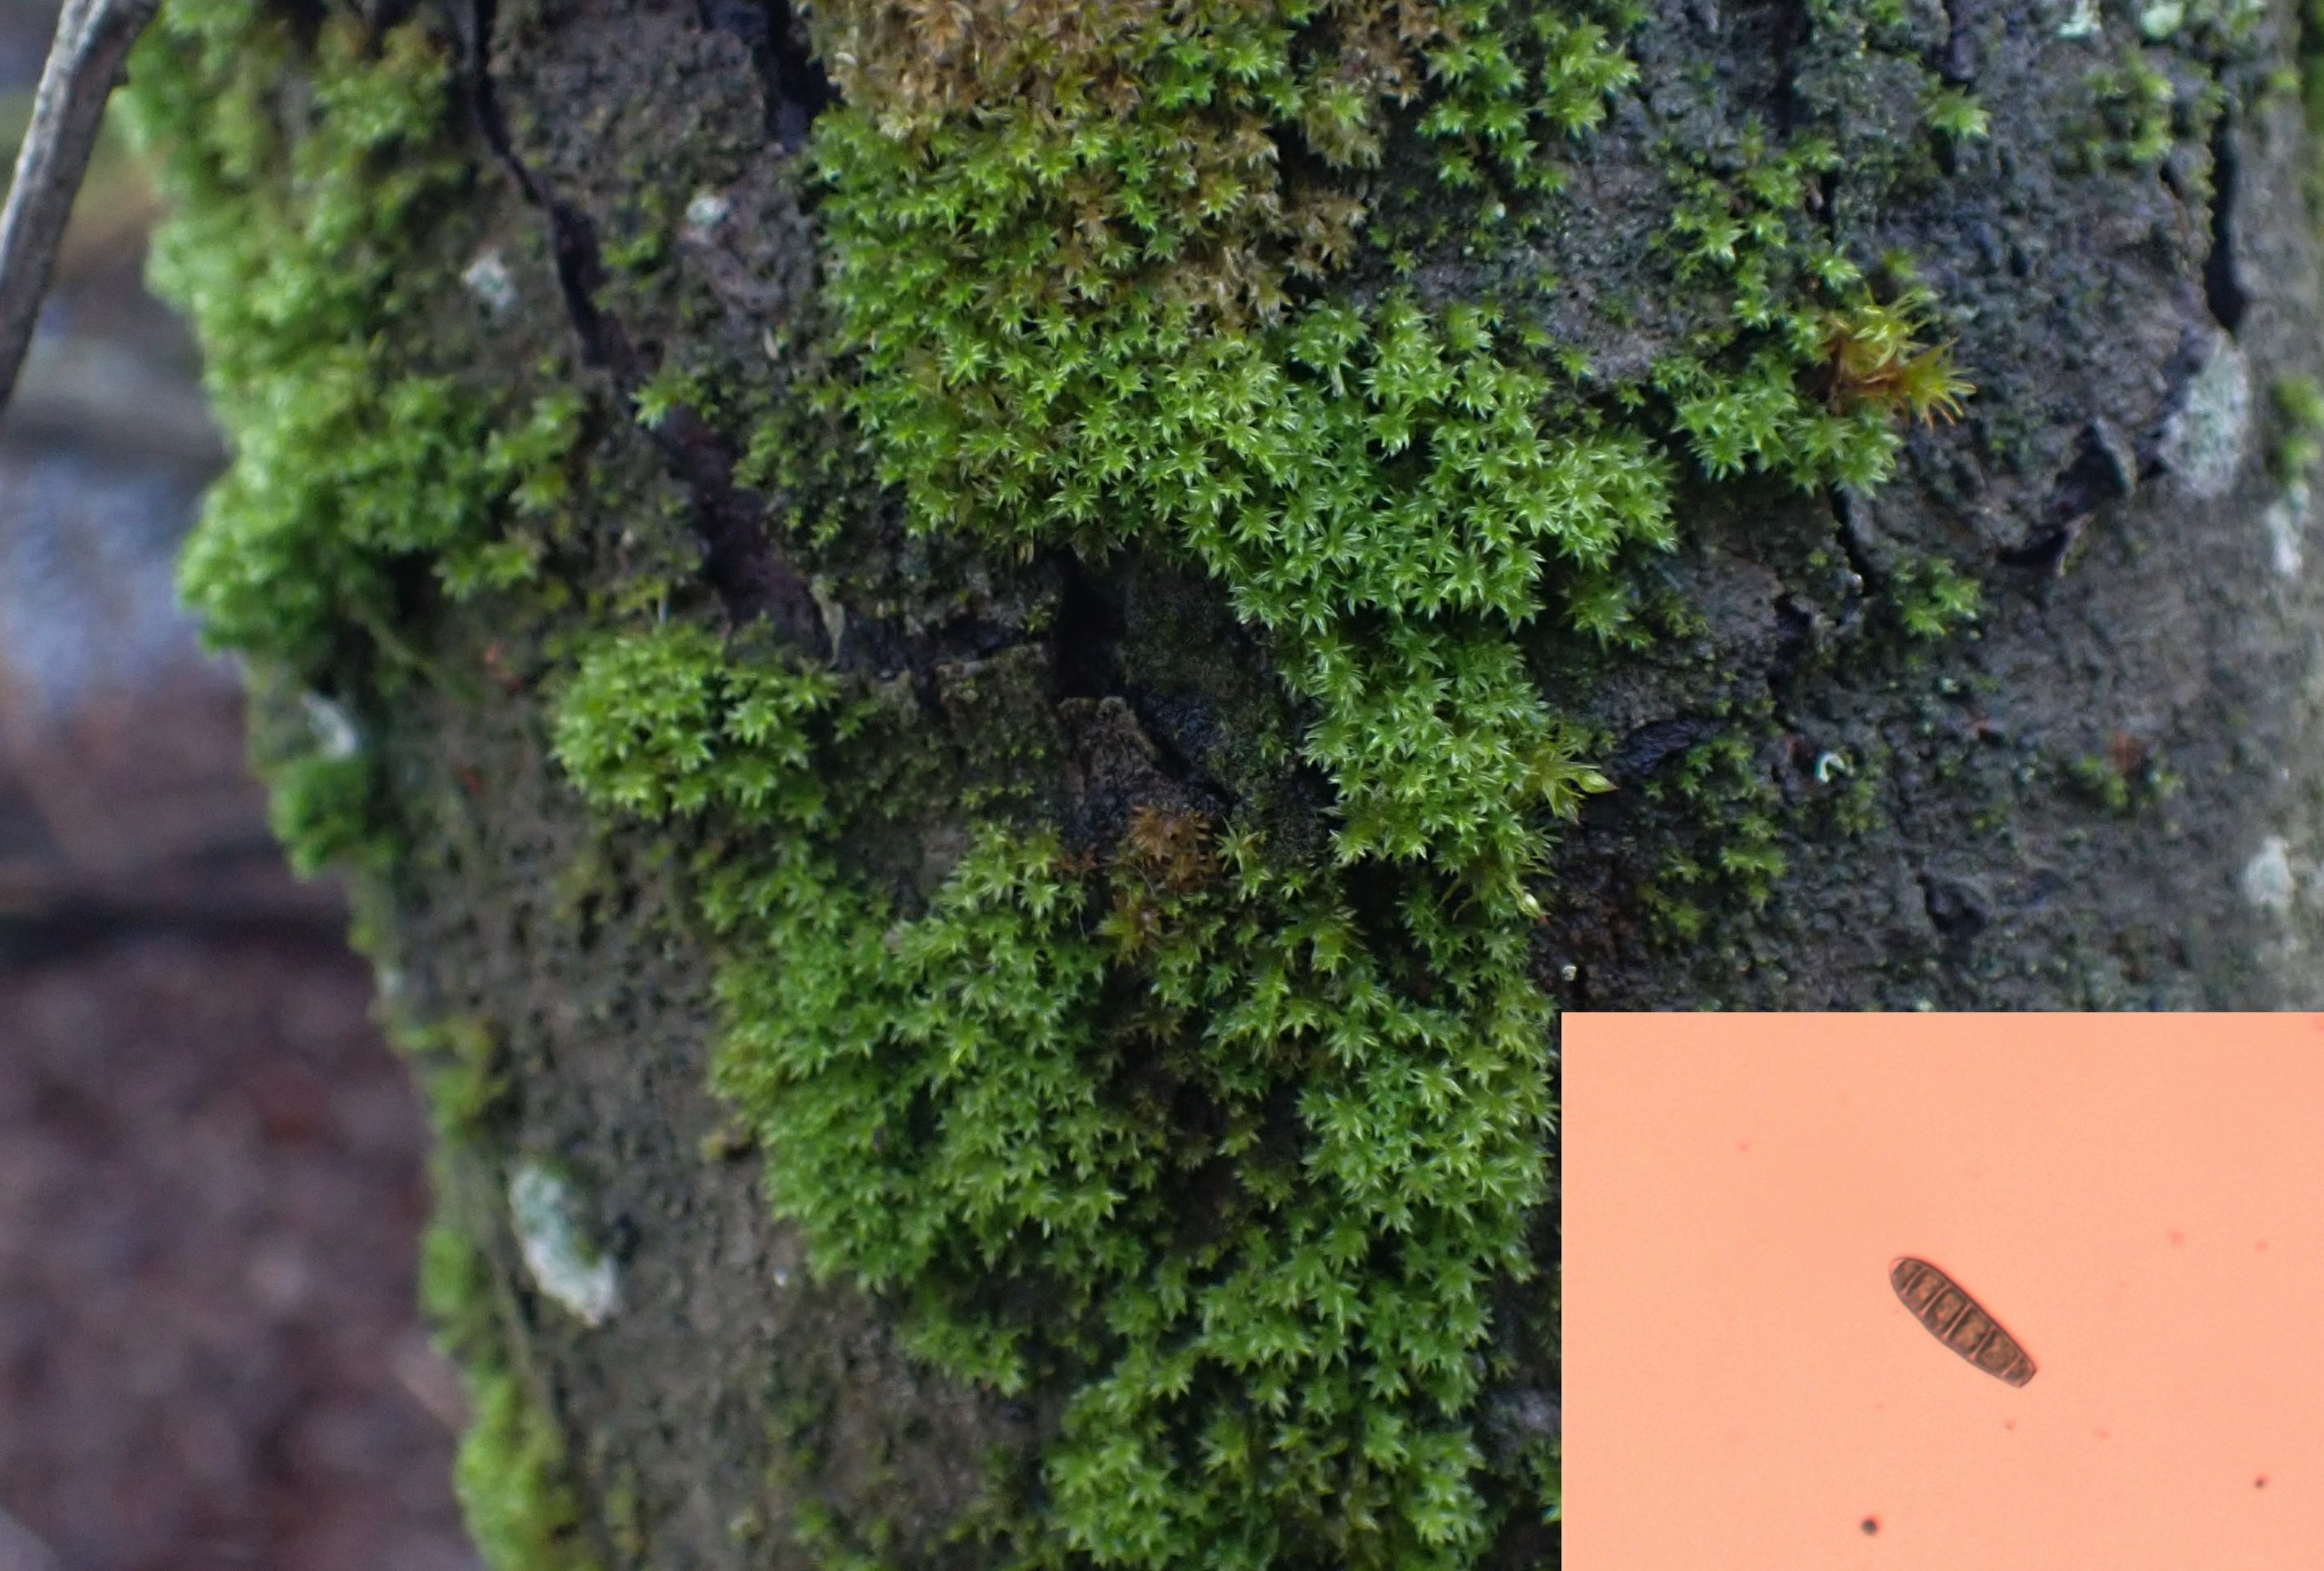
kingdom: Plantae
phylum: Bryophyta
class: Bryopsida
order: Orthotrichales
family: Orthotrichaceae
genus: Zygodon
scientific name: Zygodon conoideus
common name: Tand-køllemos
